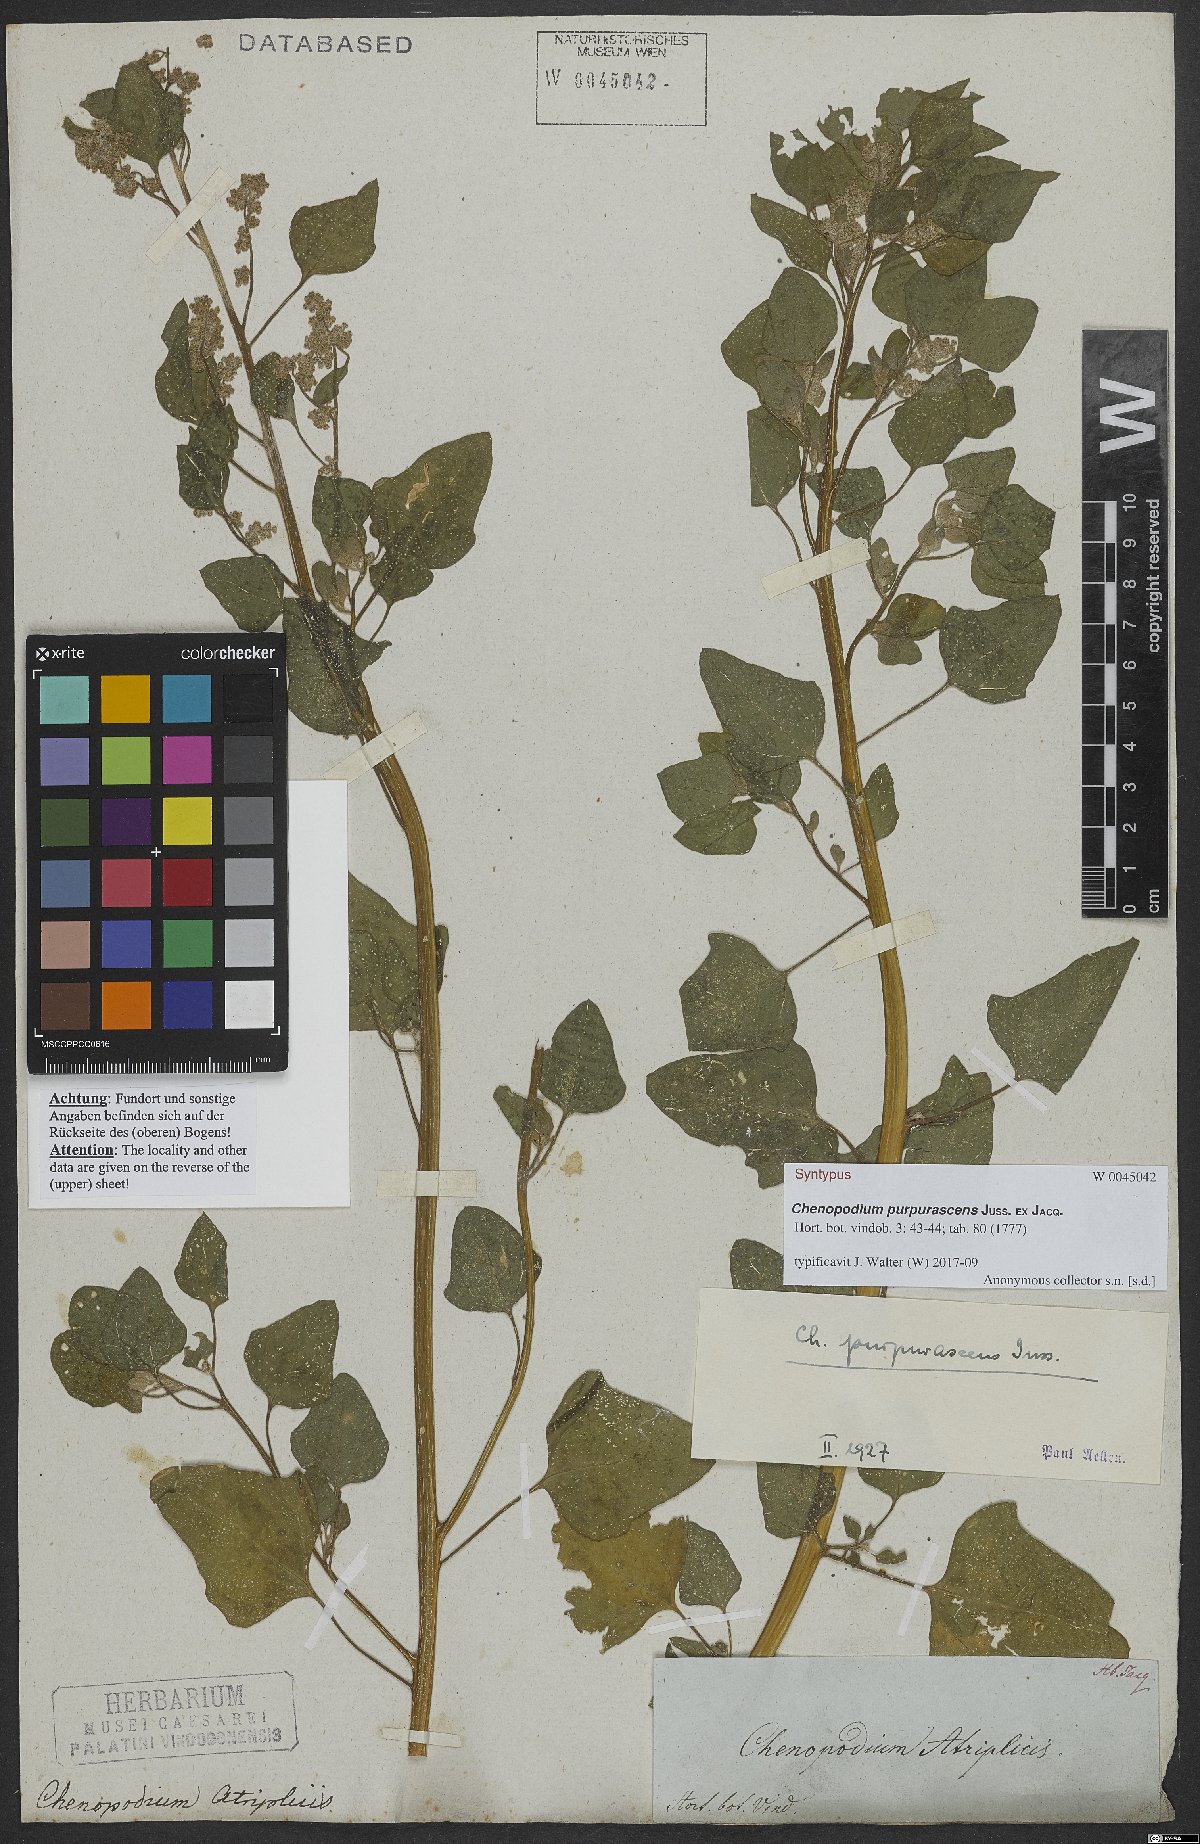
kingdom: Plantae
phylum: Tracheophyta
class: Magnoliopsida
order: Caryophyllales
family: Amaranthaceae
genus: Chenopodium
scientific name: Chenopodium quinoa
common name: Quinoa
